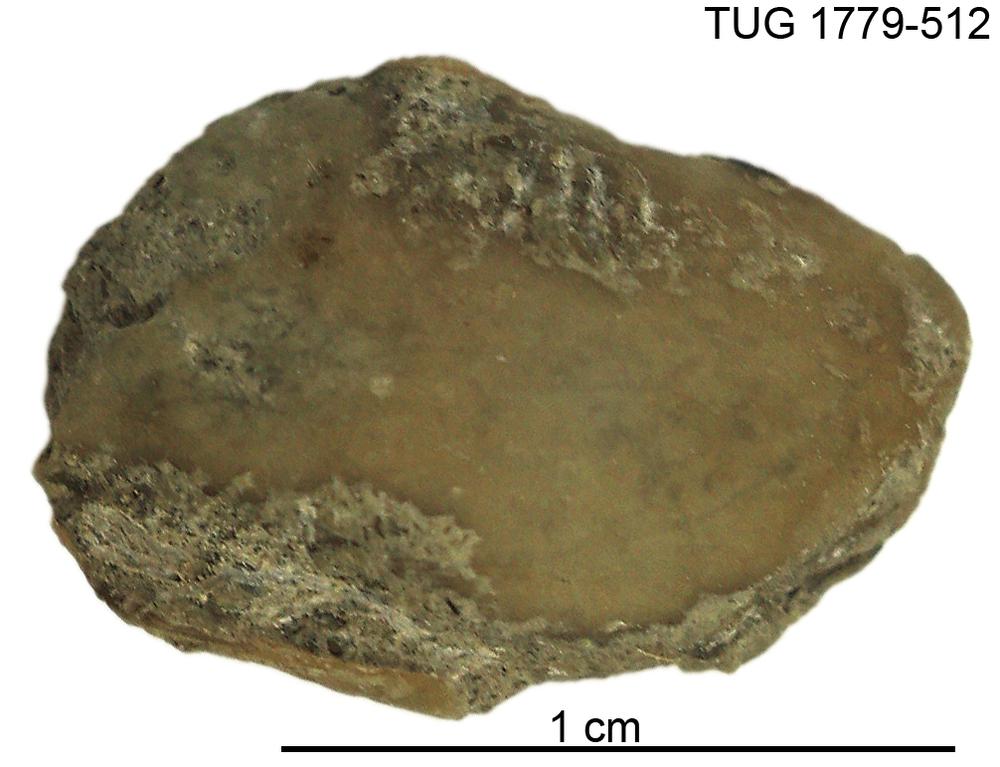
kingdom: Animalia
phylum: Mollusca
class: Bivalvia
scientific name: Bivalvia
